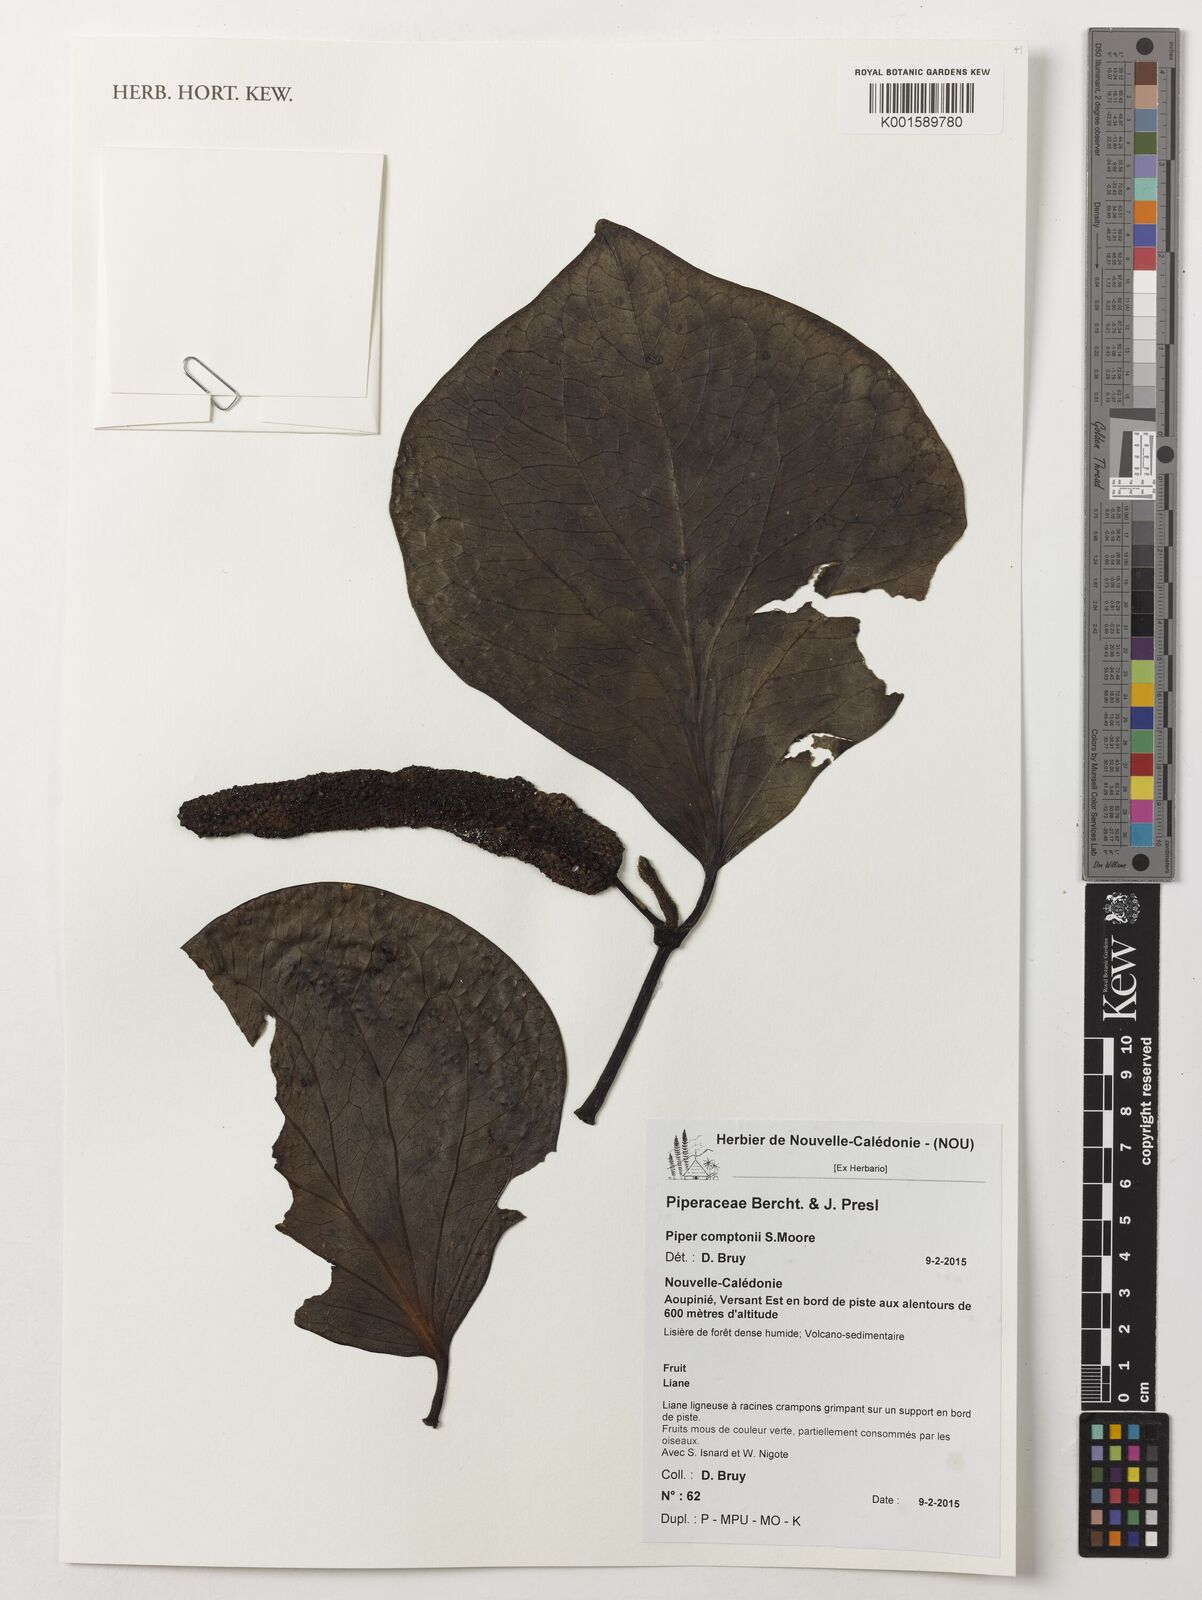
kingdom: Plantae
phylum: Tracheophyta
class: Magnoliopsida
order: Piperales
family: Piperaceae
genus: Piper
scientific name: Piper insectifugum
